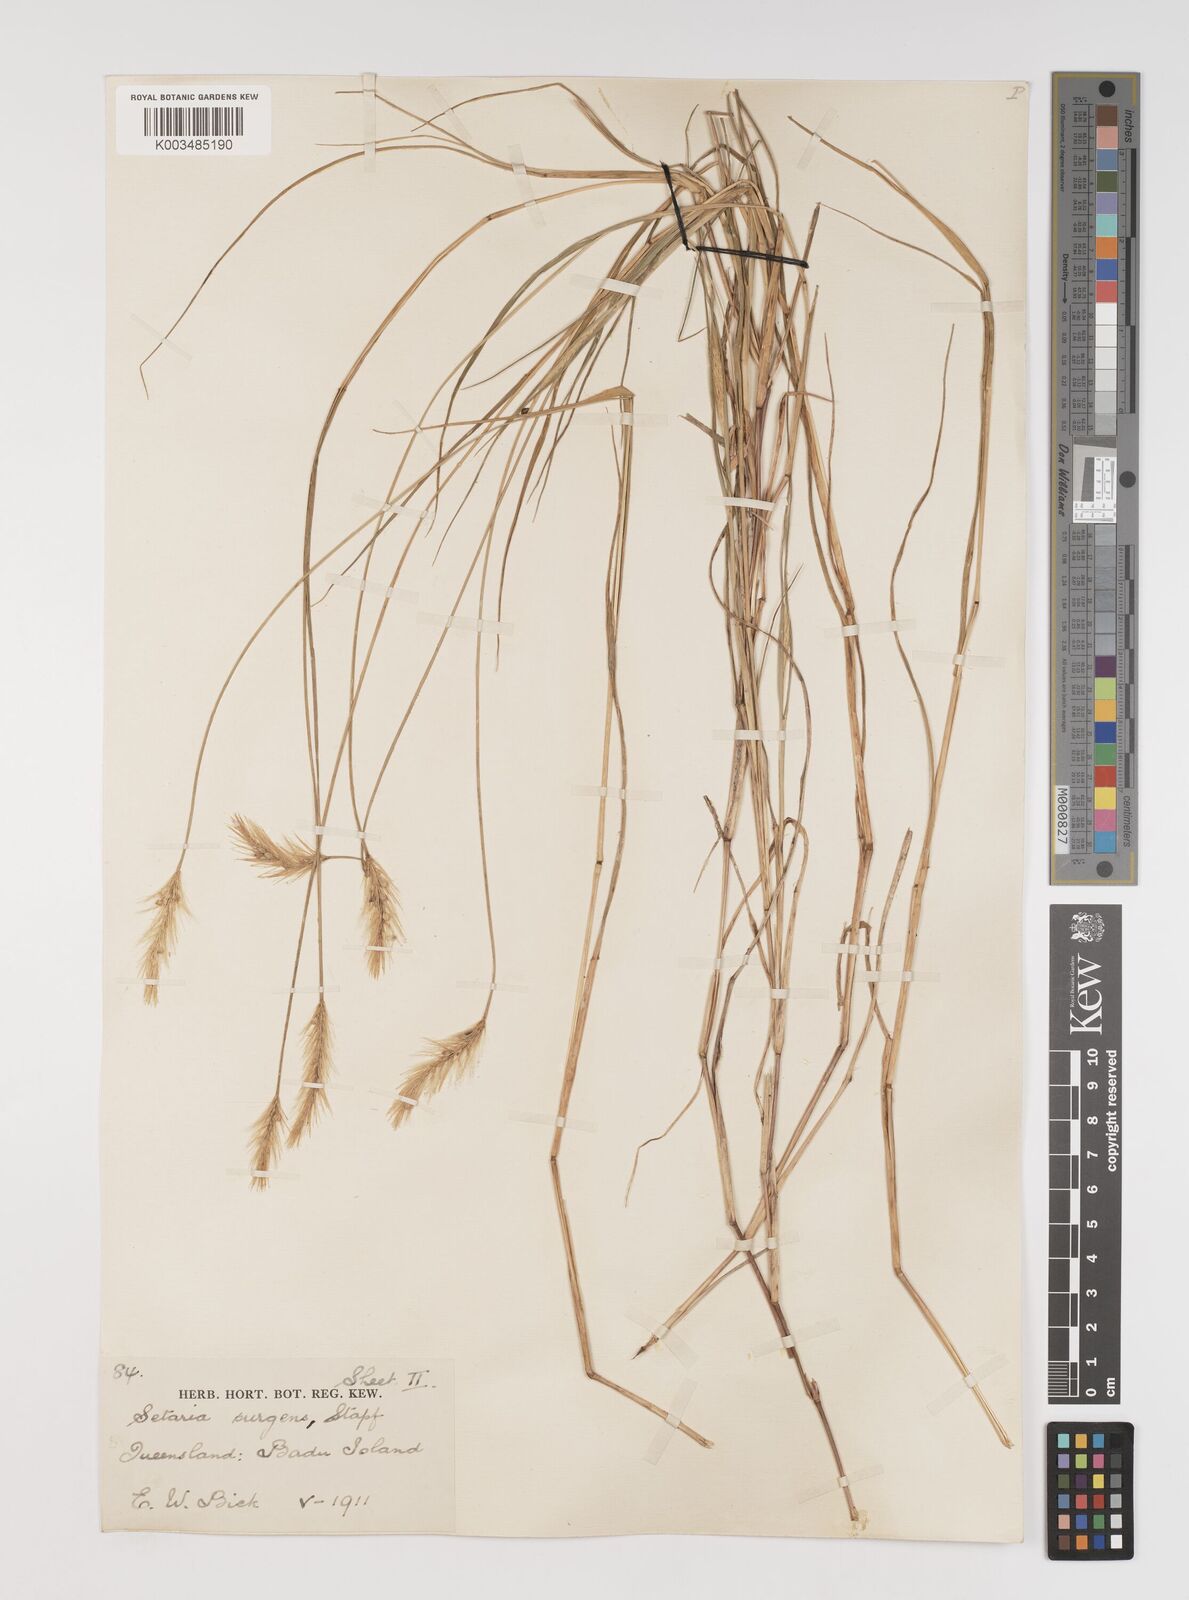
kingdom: Plantae
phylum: Tracheophyta
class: Liliopsida
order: Poales
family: Poaceae
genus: Setaria
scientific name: Setaria apiculata
